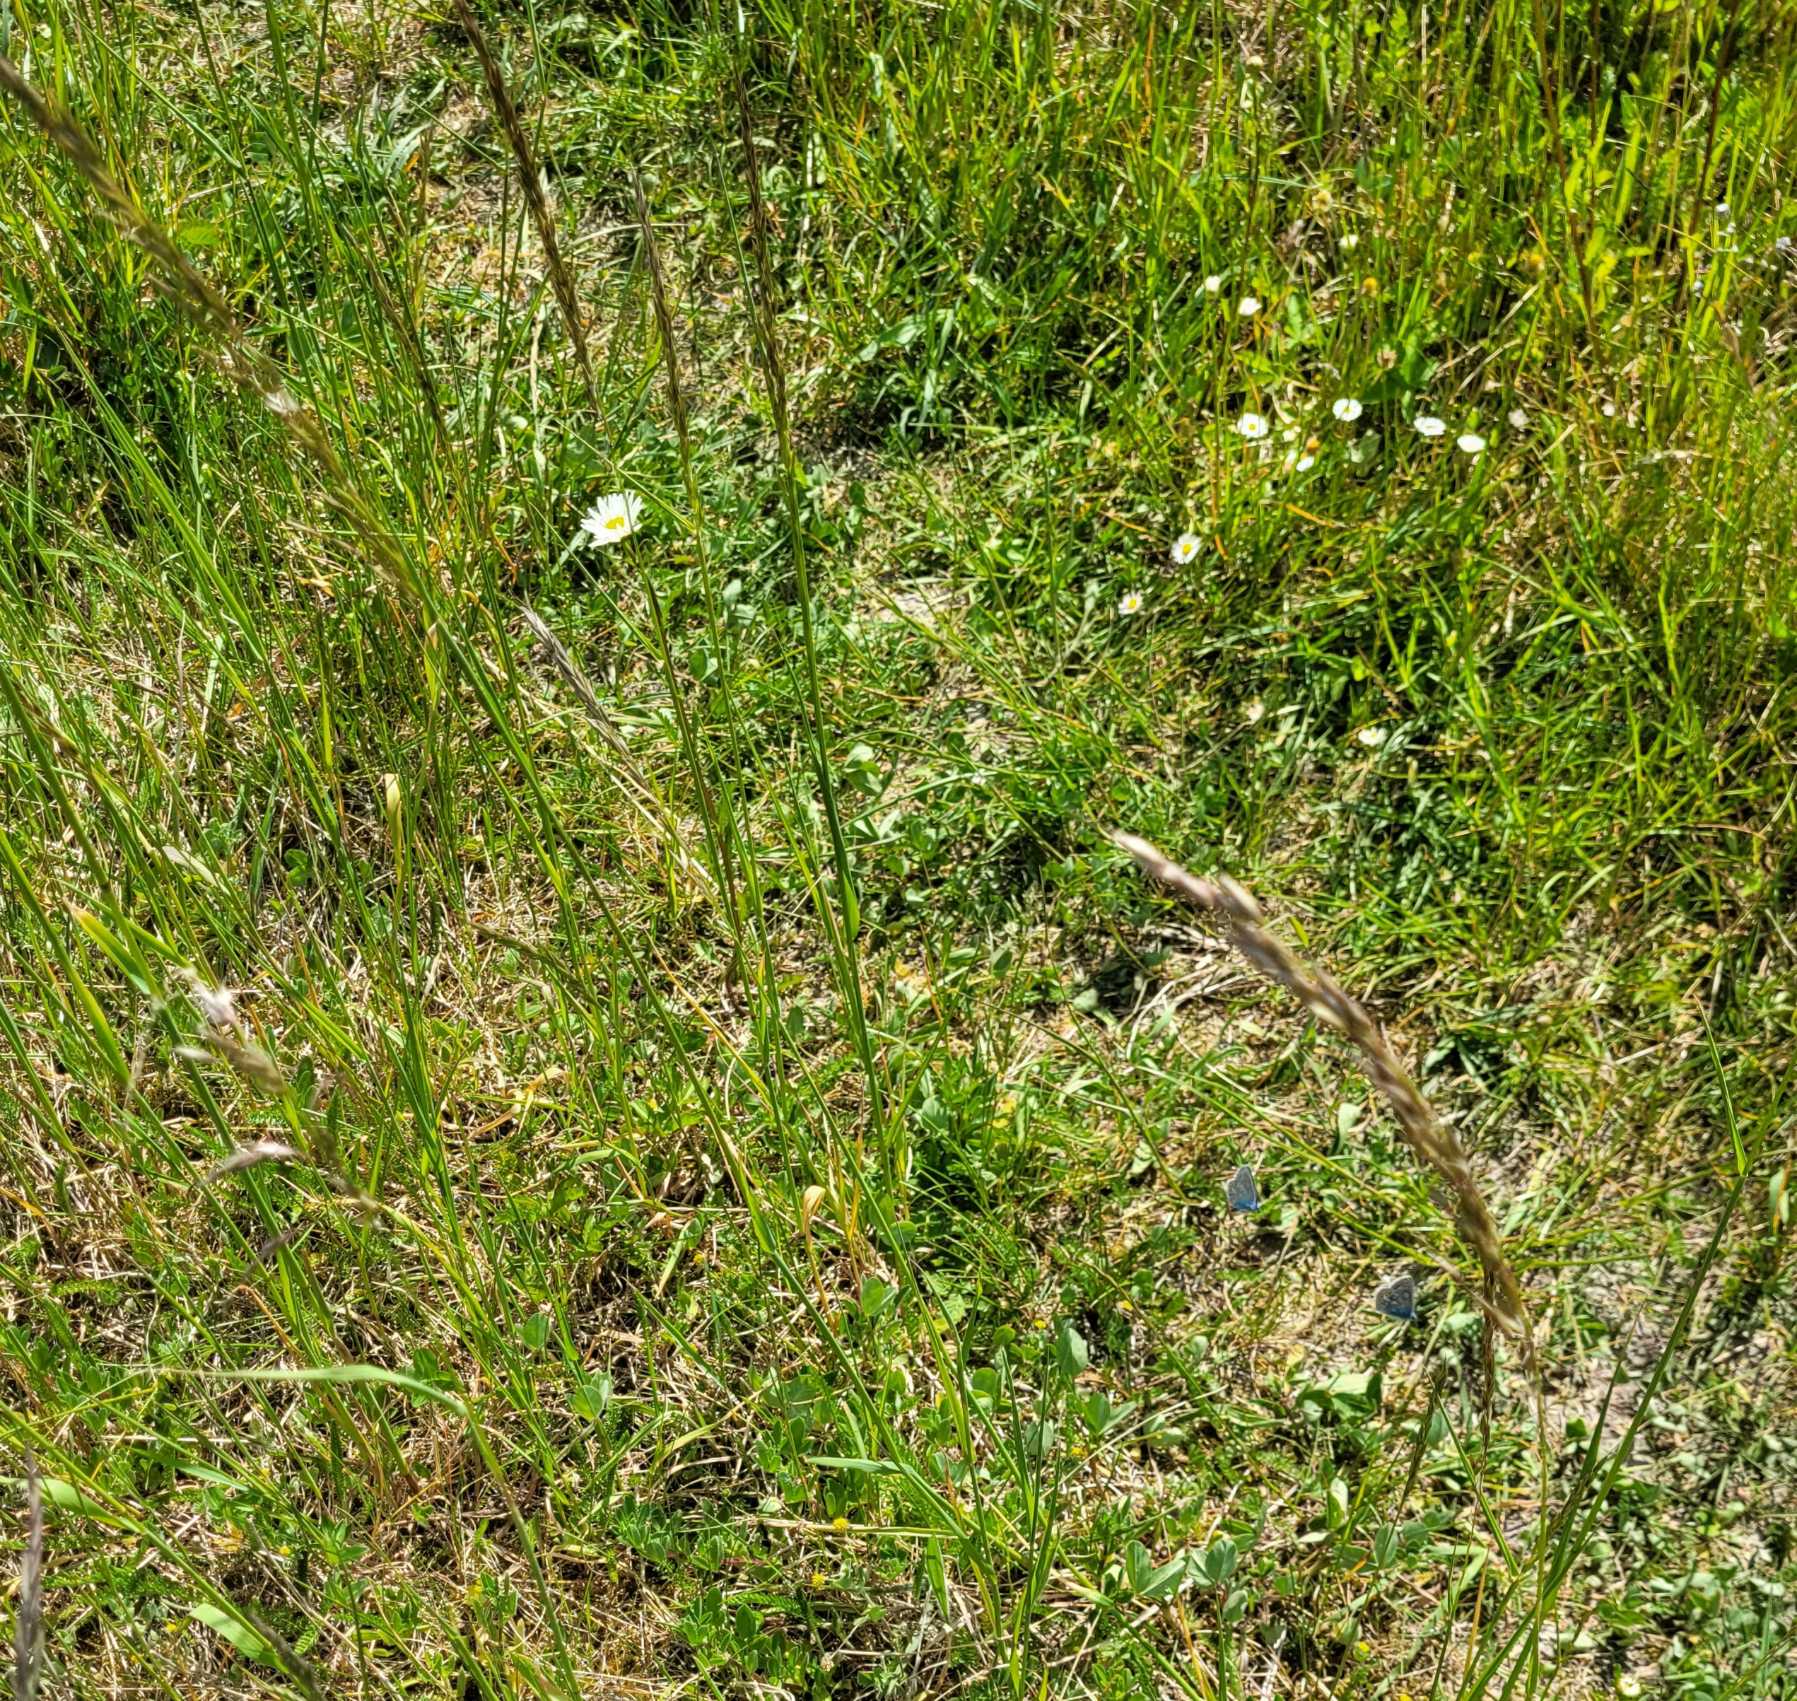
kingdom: Animalia
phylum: Arthropoda
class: Insecta
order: Lepidoptera
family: Lycaenidae
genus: Polyommatus
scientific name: Polyommatus icarus
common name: Almindelig blåfugl
